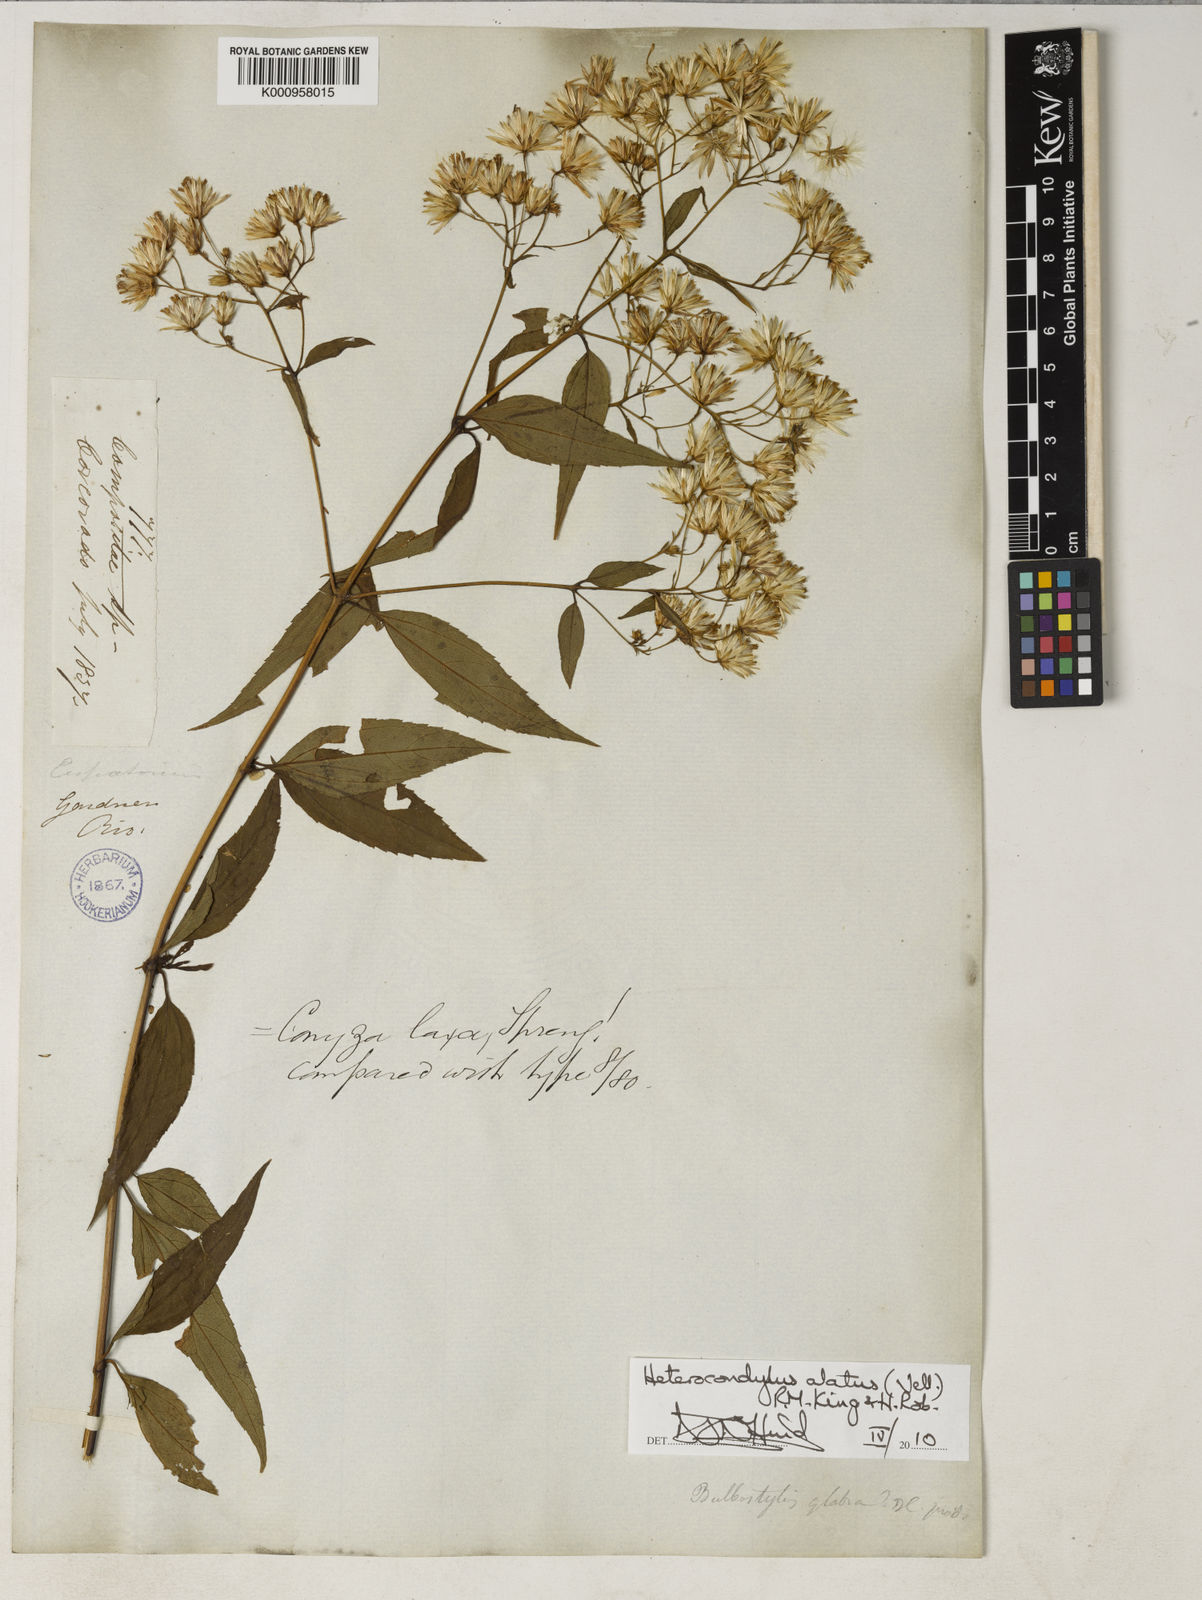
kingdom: Plantae
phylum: Tracheophyta
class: Magnoliopsida
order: Asterales
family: Asteraceae
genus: Heterocondylus
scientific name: Heterocondylus alatus
